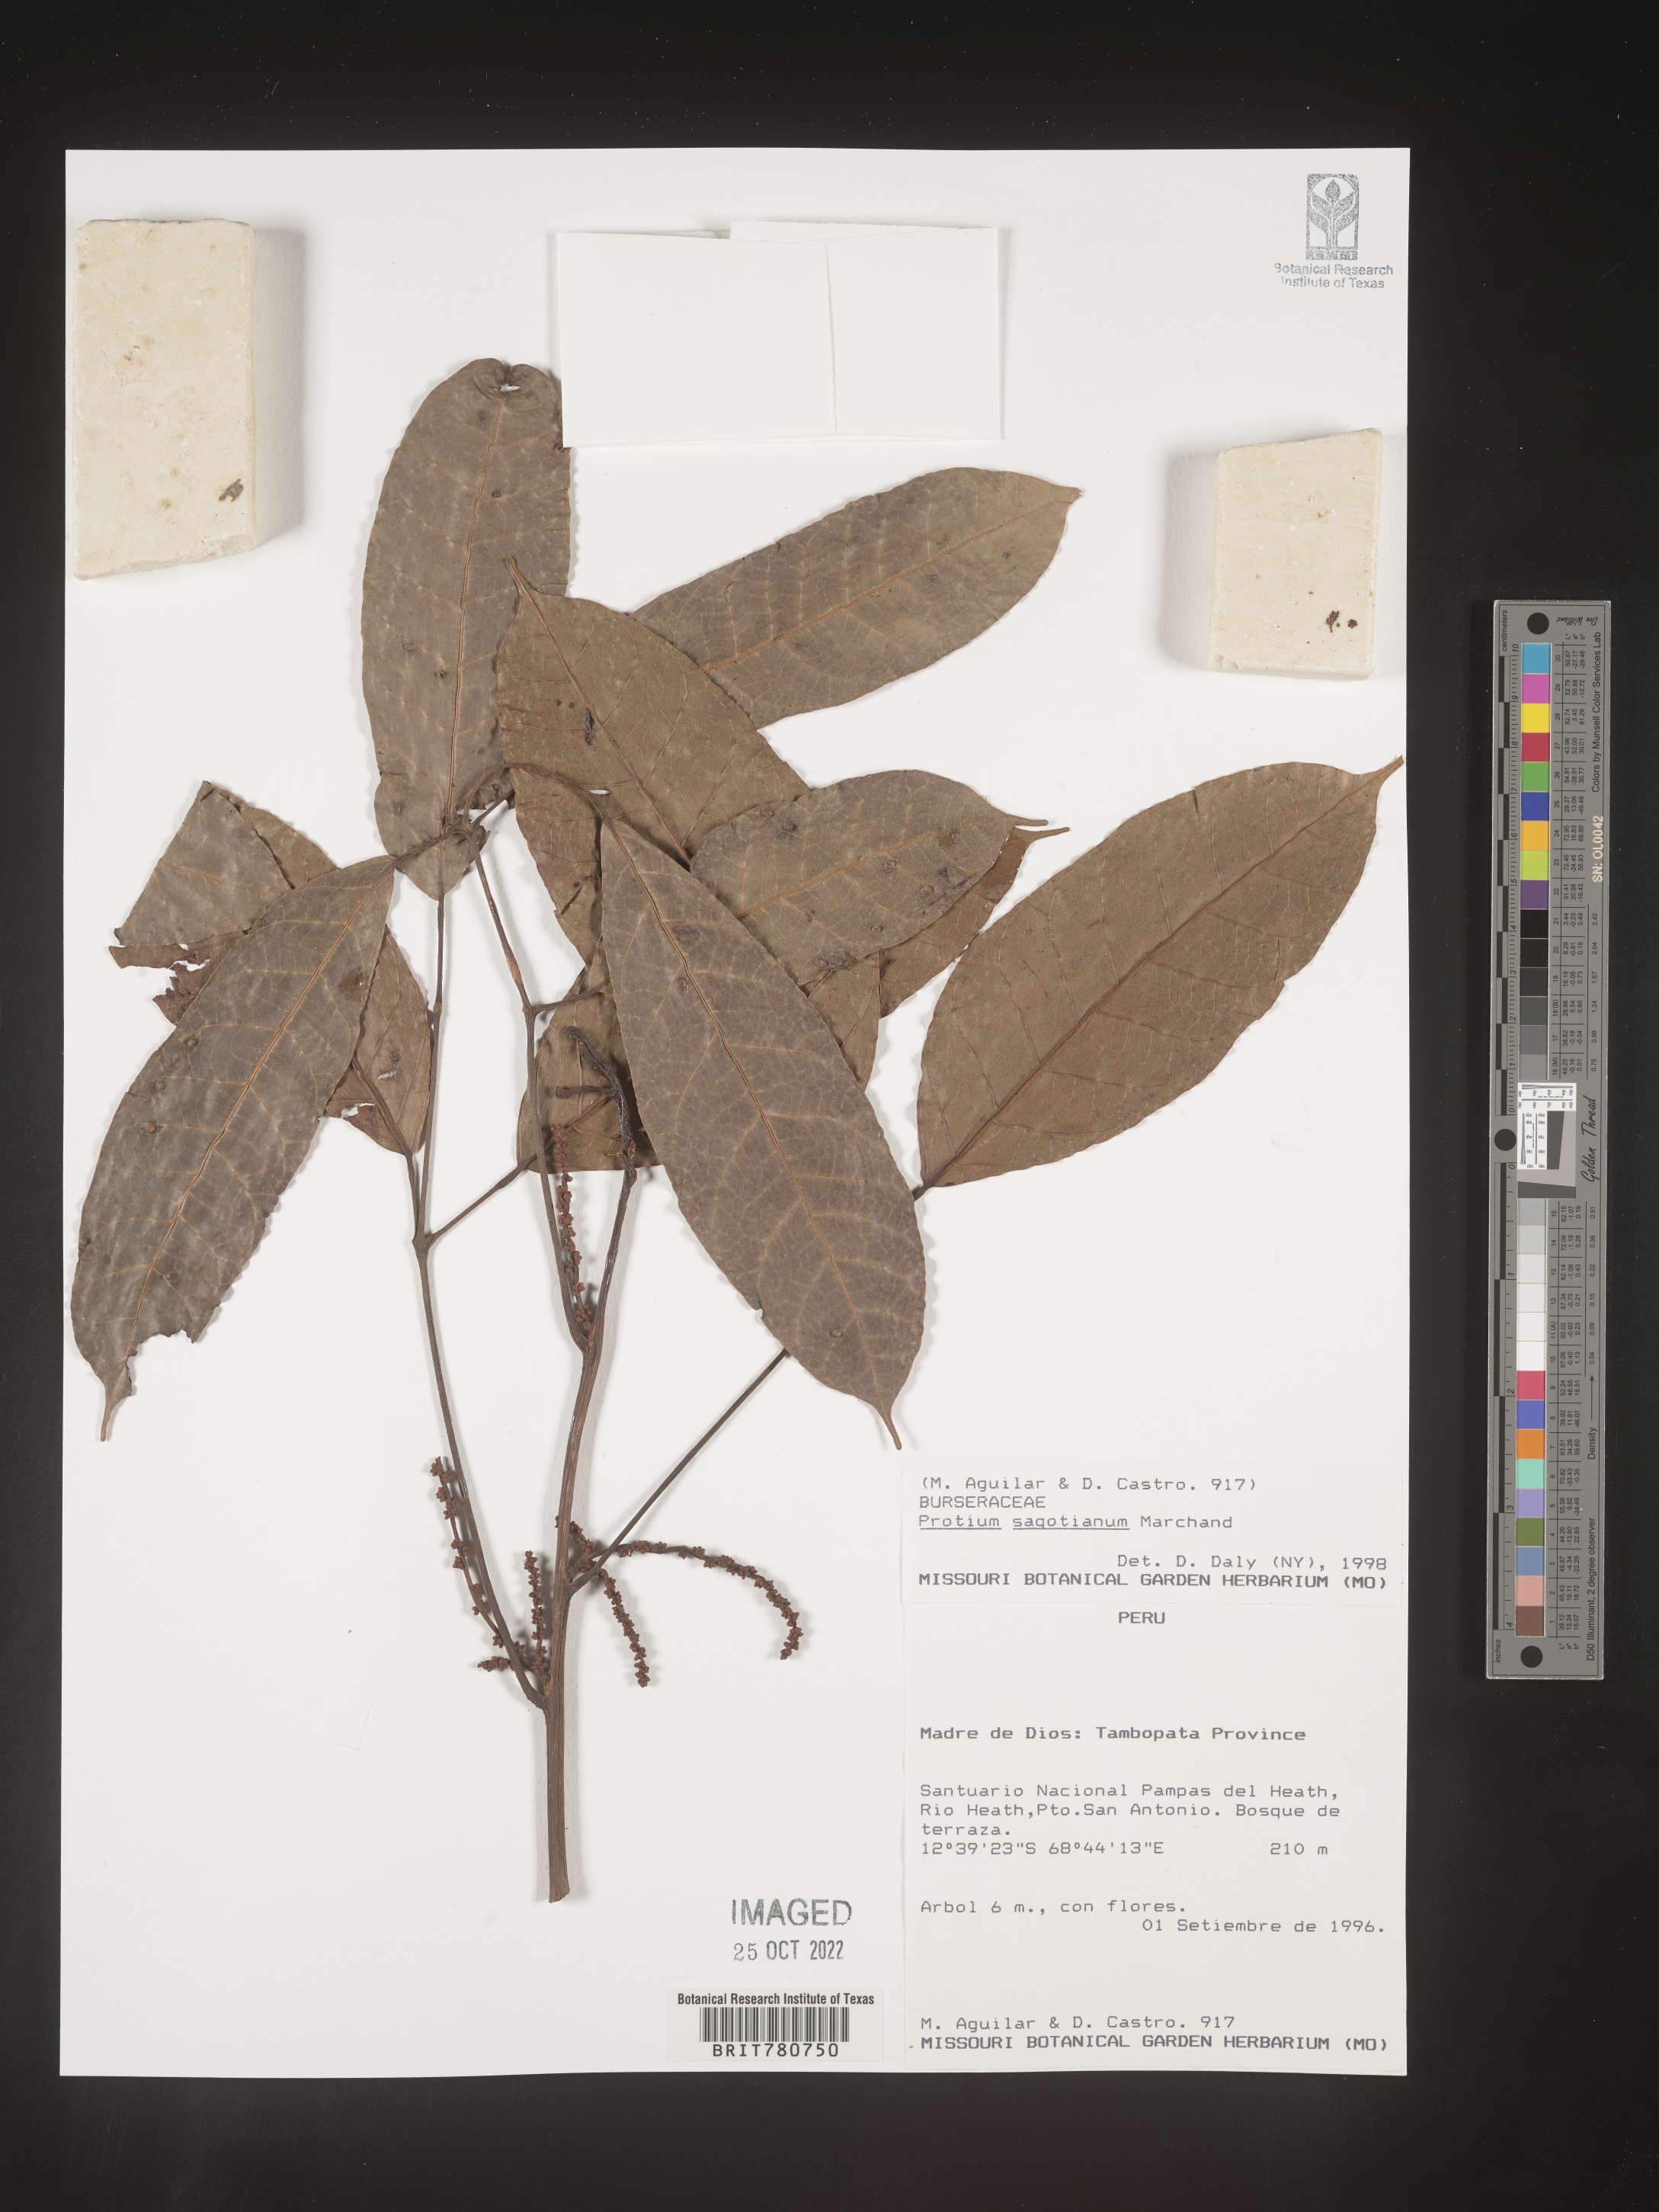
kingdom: Plantae
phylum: Tracheophyta
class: Magnoliopsida
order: Sapindales
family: Burseraceae
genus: Protium
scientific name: Protium
